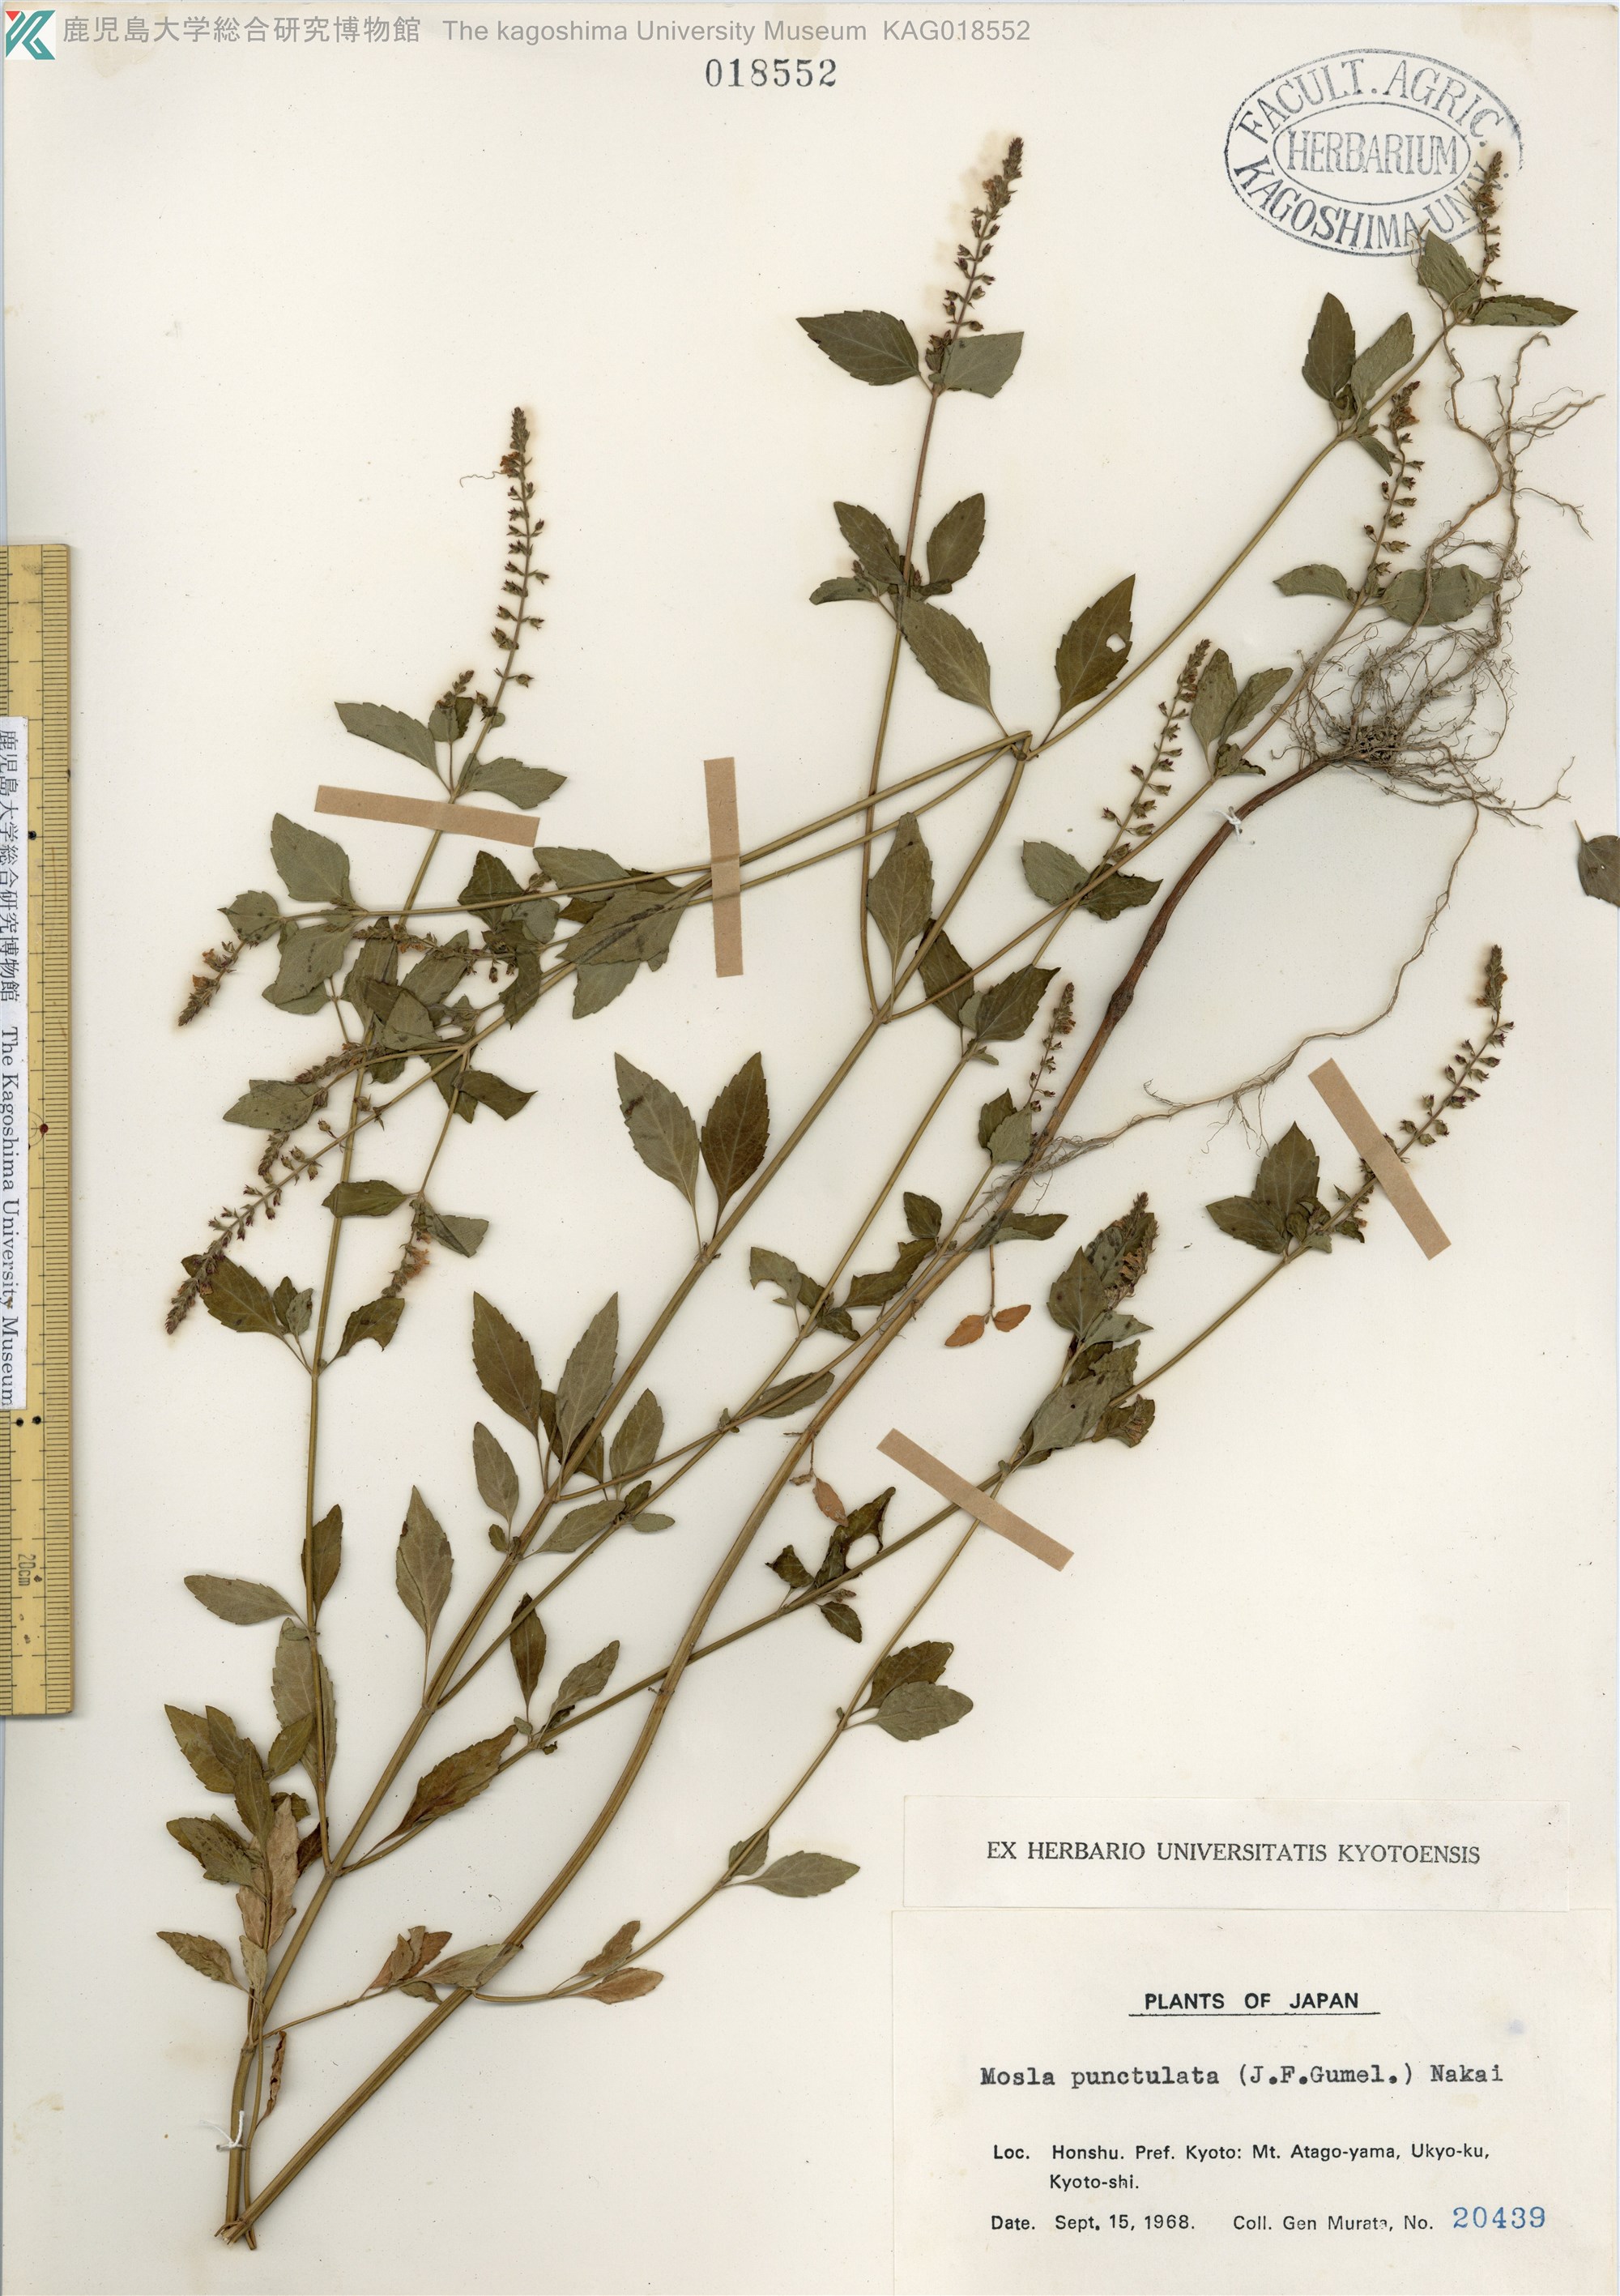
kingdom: Plantae
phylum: Tracheophyta
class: Magnoliopsida
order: Lamiales
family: Lamiaceae
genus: Mosla
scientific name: Mosla scabra
